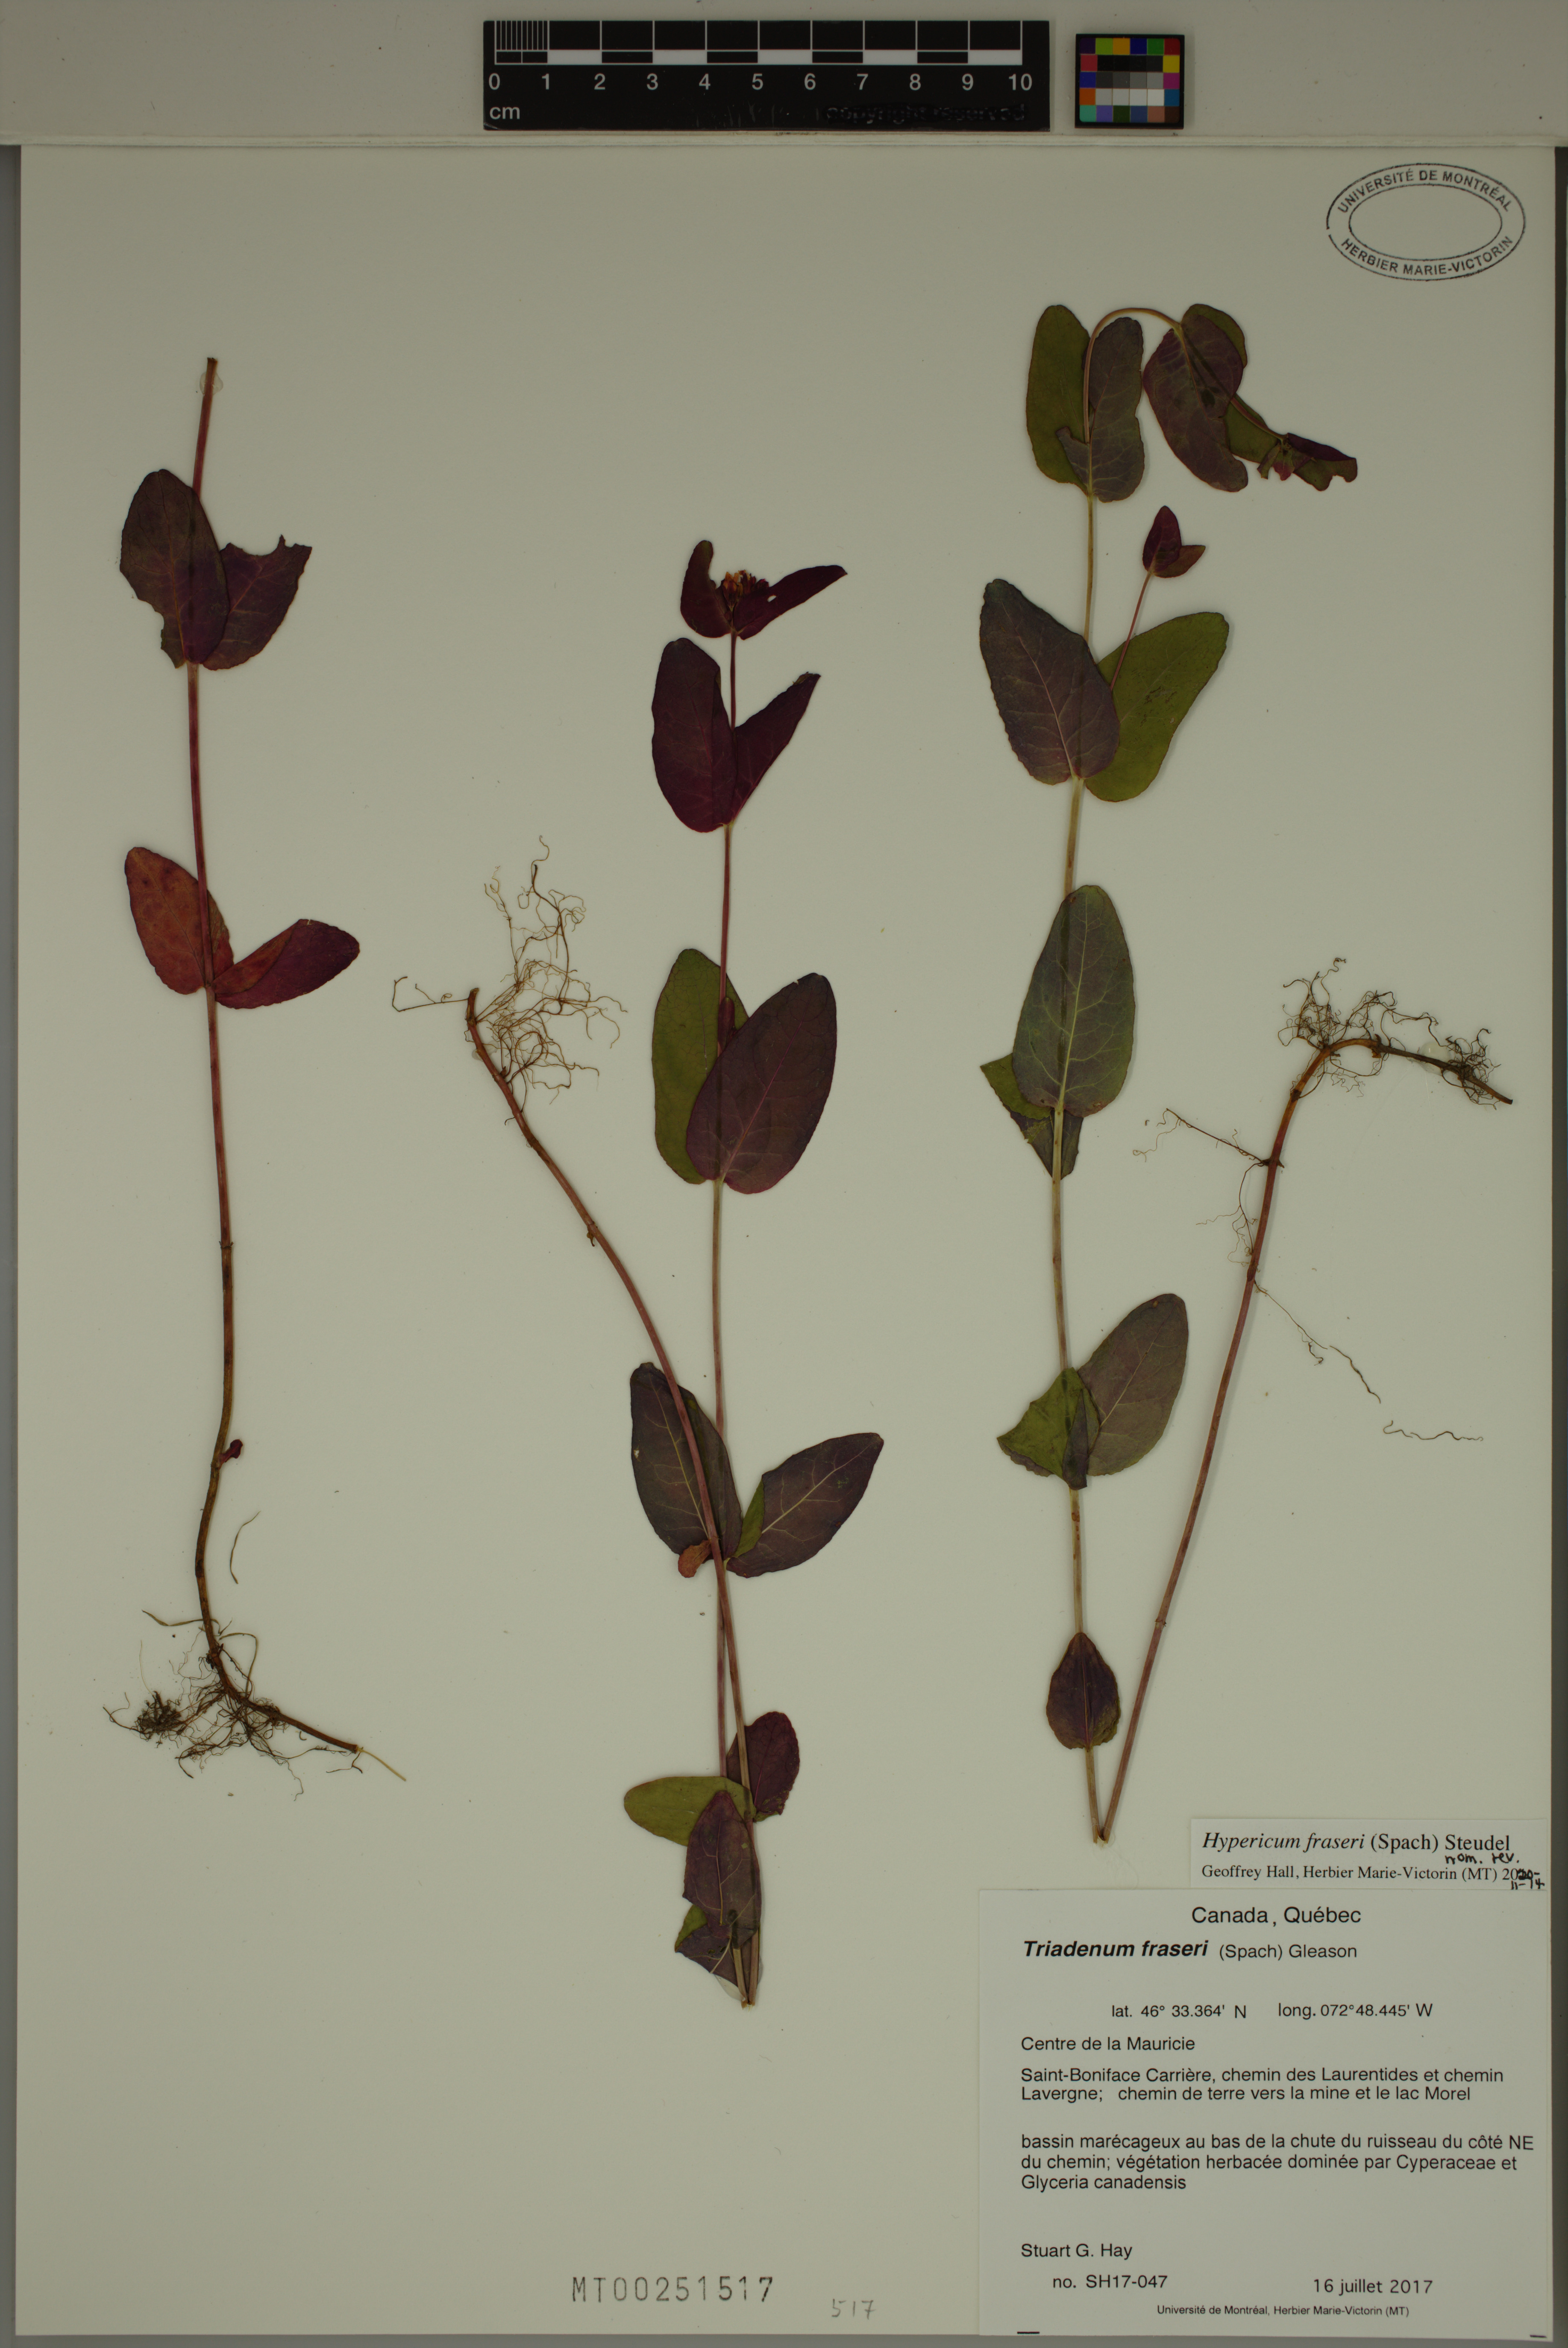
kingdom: Plantae
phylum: Tracheophyta
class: Magnoliopsida
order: Malpighiales
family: Hypericaceae
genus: Triadenum
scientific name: Triadenum fraseri
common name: Fraser's marsh st. johnswort
